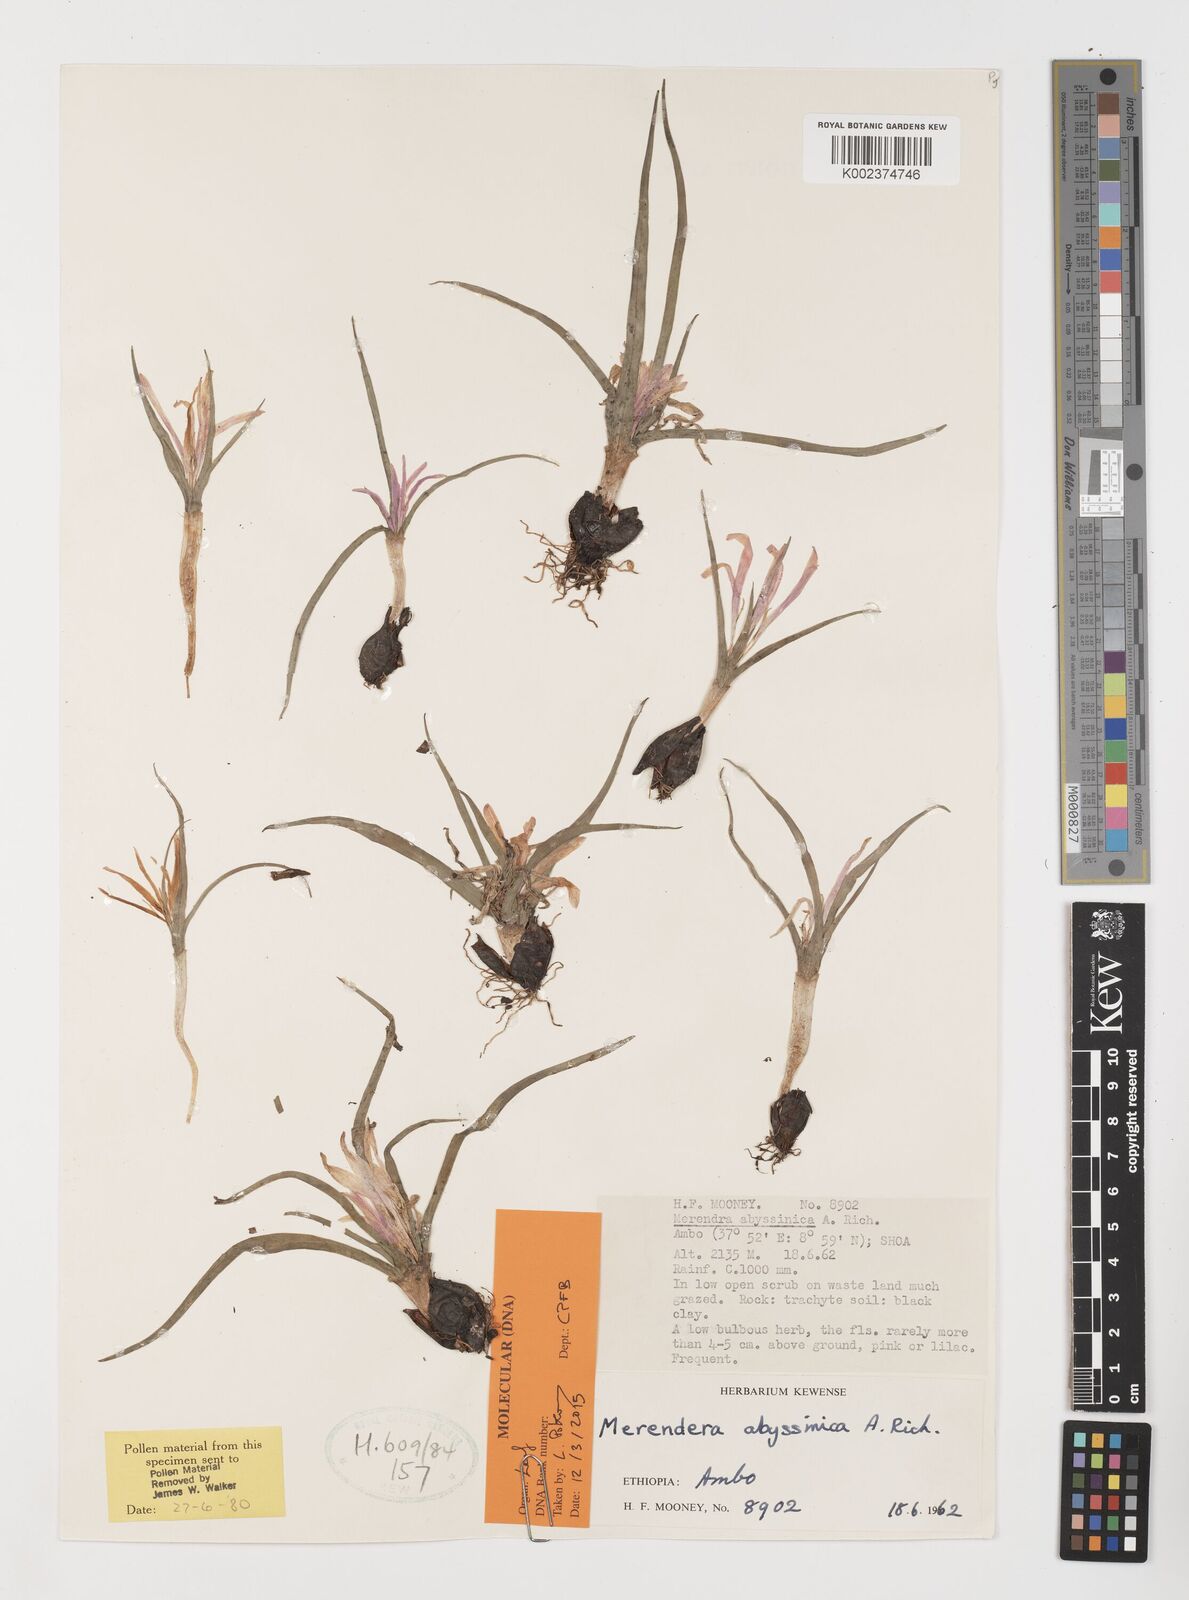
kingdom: Plantae
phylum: Tracheophyta
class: Liliopsida
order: Liliales
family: Colchicaceae
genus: Colchicum
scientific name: Colchicum
